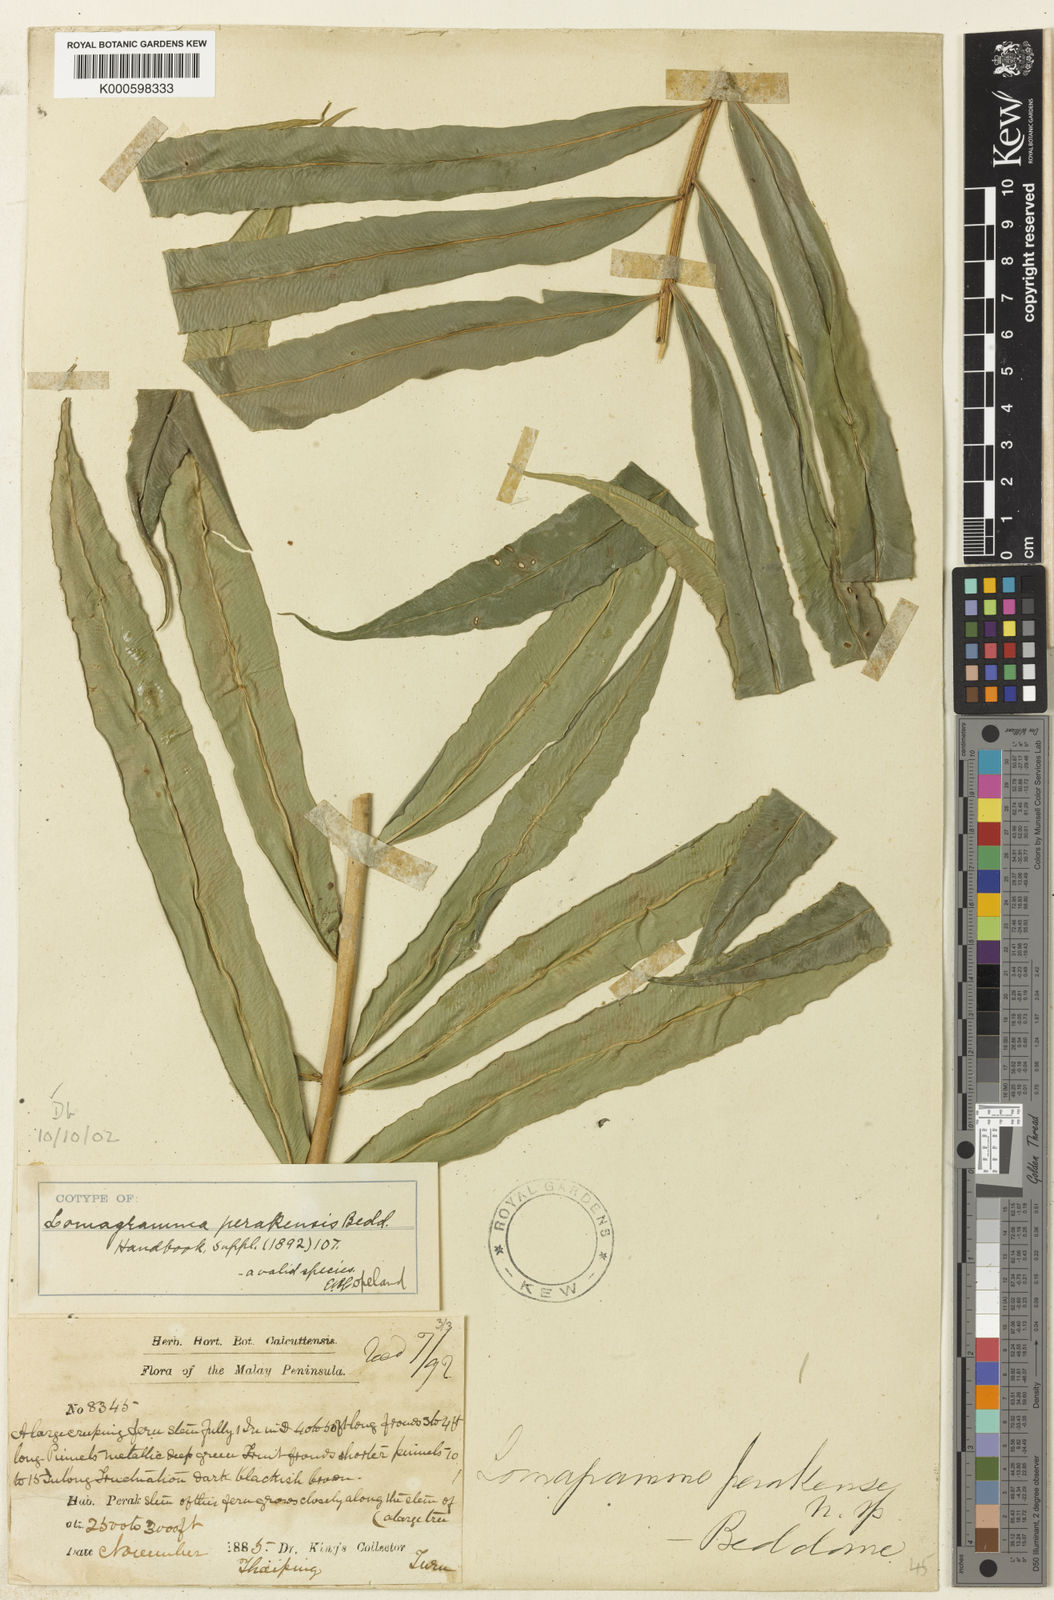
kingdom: Plantae
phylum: Tracheophyta
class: Polypodiopsida
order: Polypodiales
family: Dryopteridaceae
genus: Lomagramma
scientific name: Lomagramma perakensis
